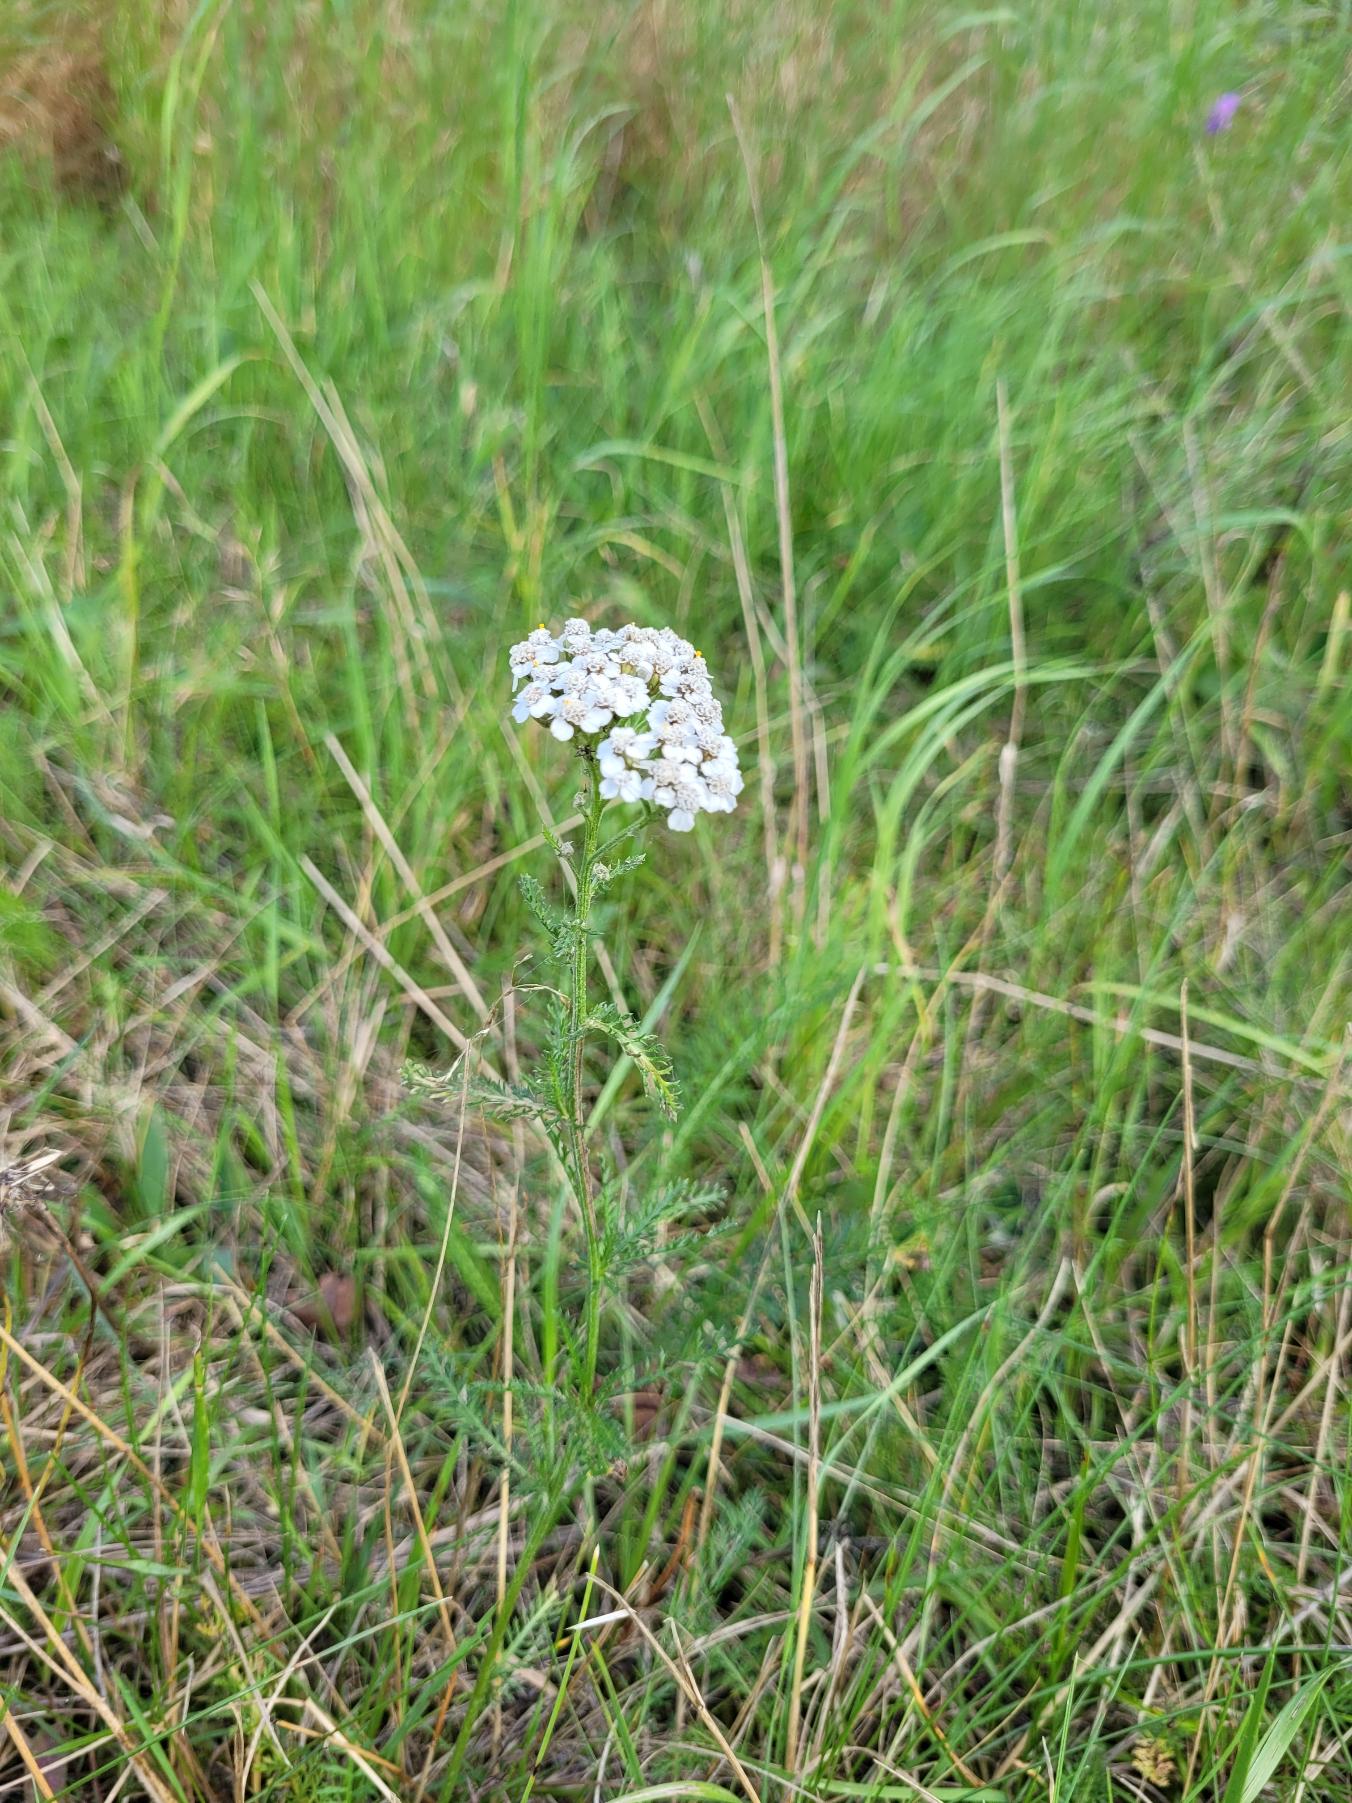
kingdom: Plantae
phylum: Tracheophyta
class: Magnoliopsida
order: Asterales
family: Asteraceae
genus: Achillea
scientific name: Achillea millefolium
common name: Almindelig røllike
